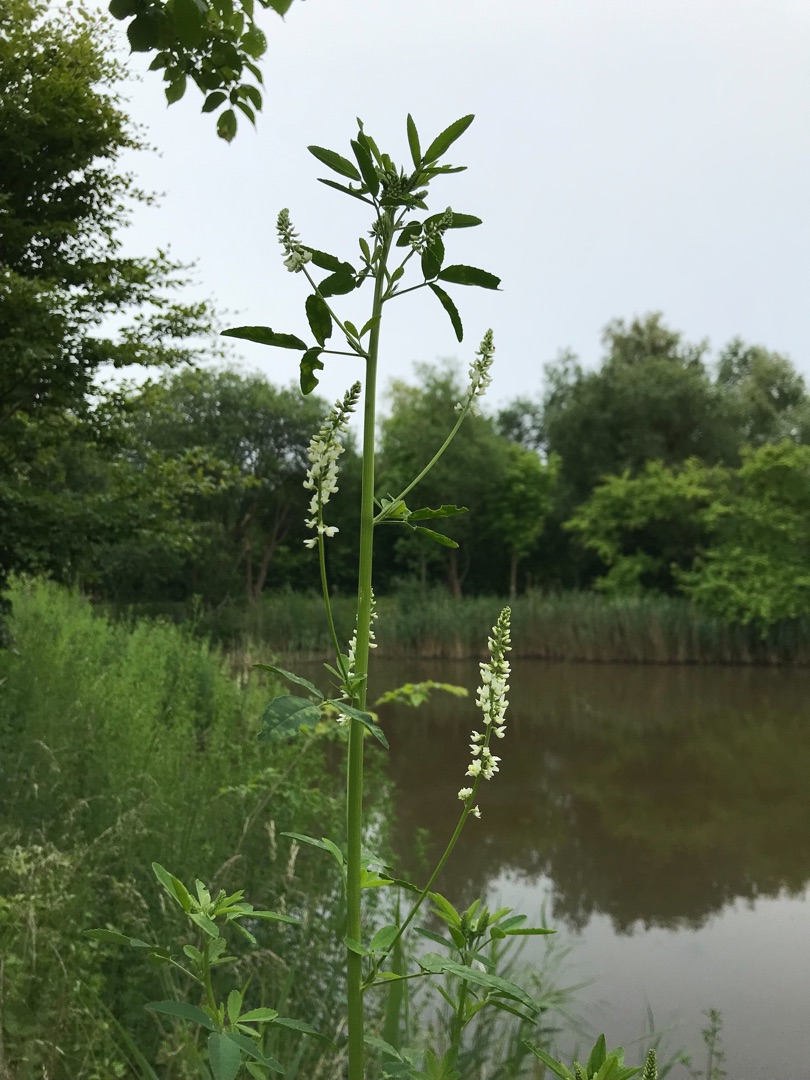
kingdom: Plantae
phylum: Tracheophyta
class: Magnoliopsida
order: Fabales
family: Fabaceae
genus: Melilotus
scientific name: Melilotus albus
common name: Hvid stenkløver
